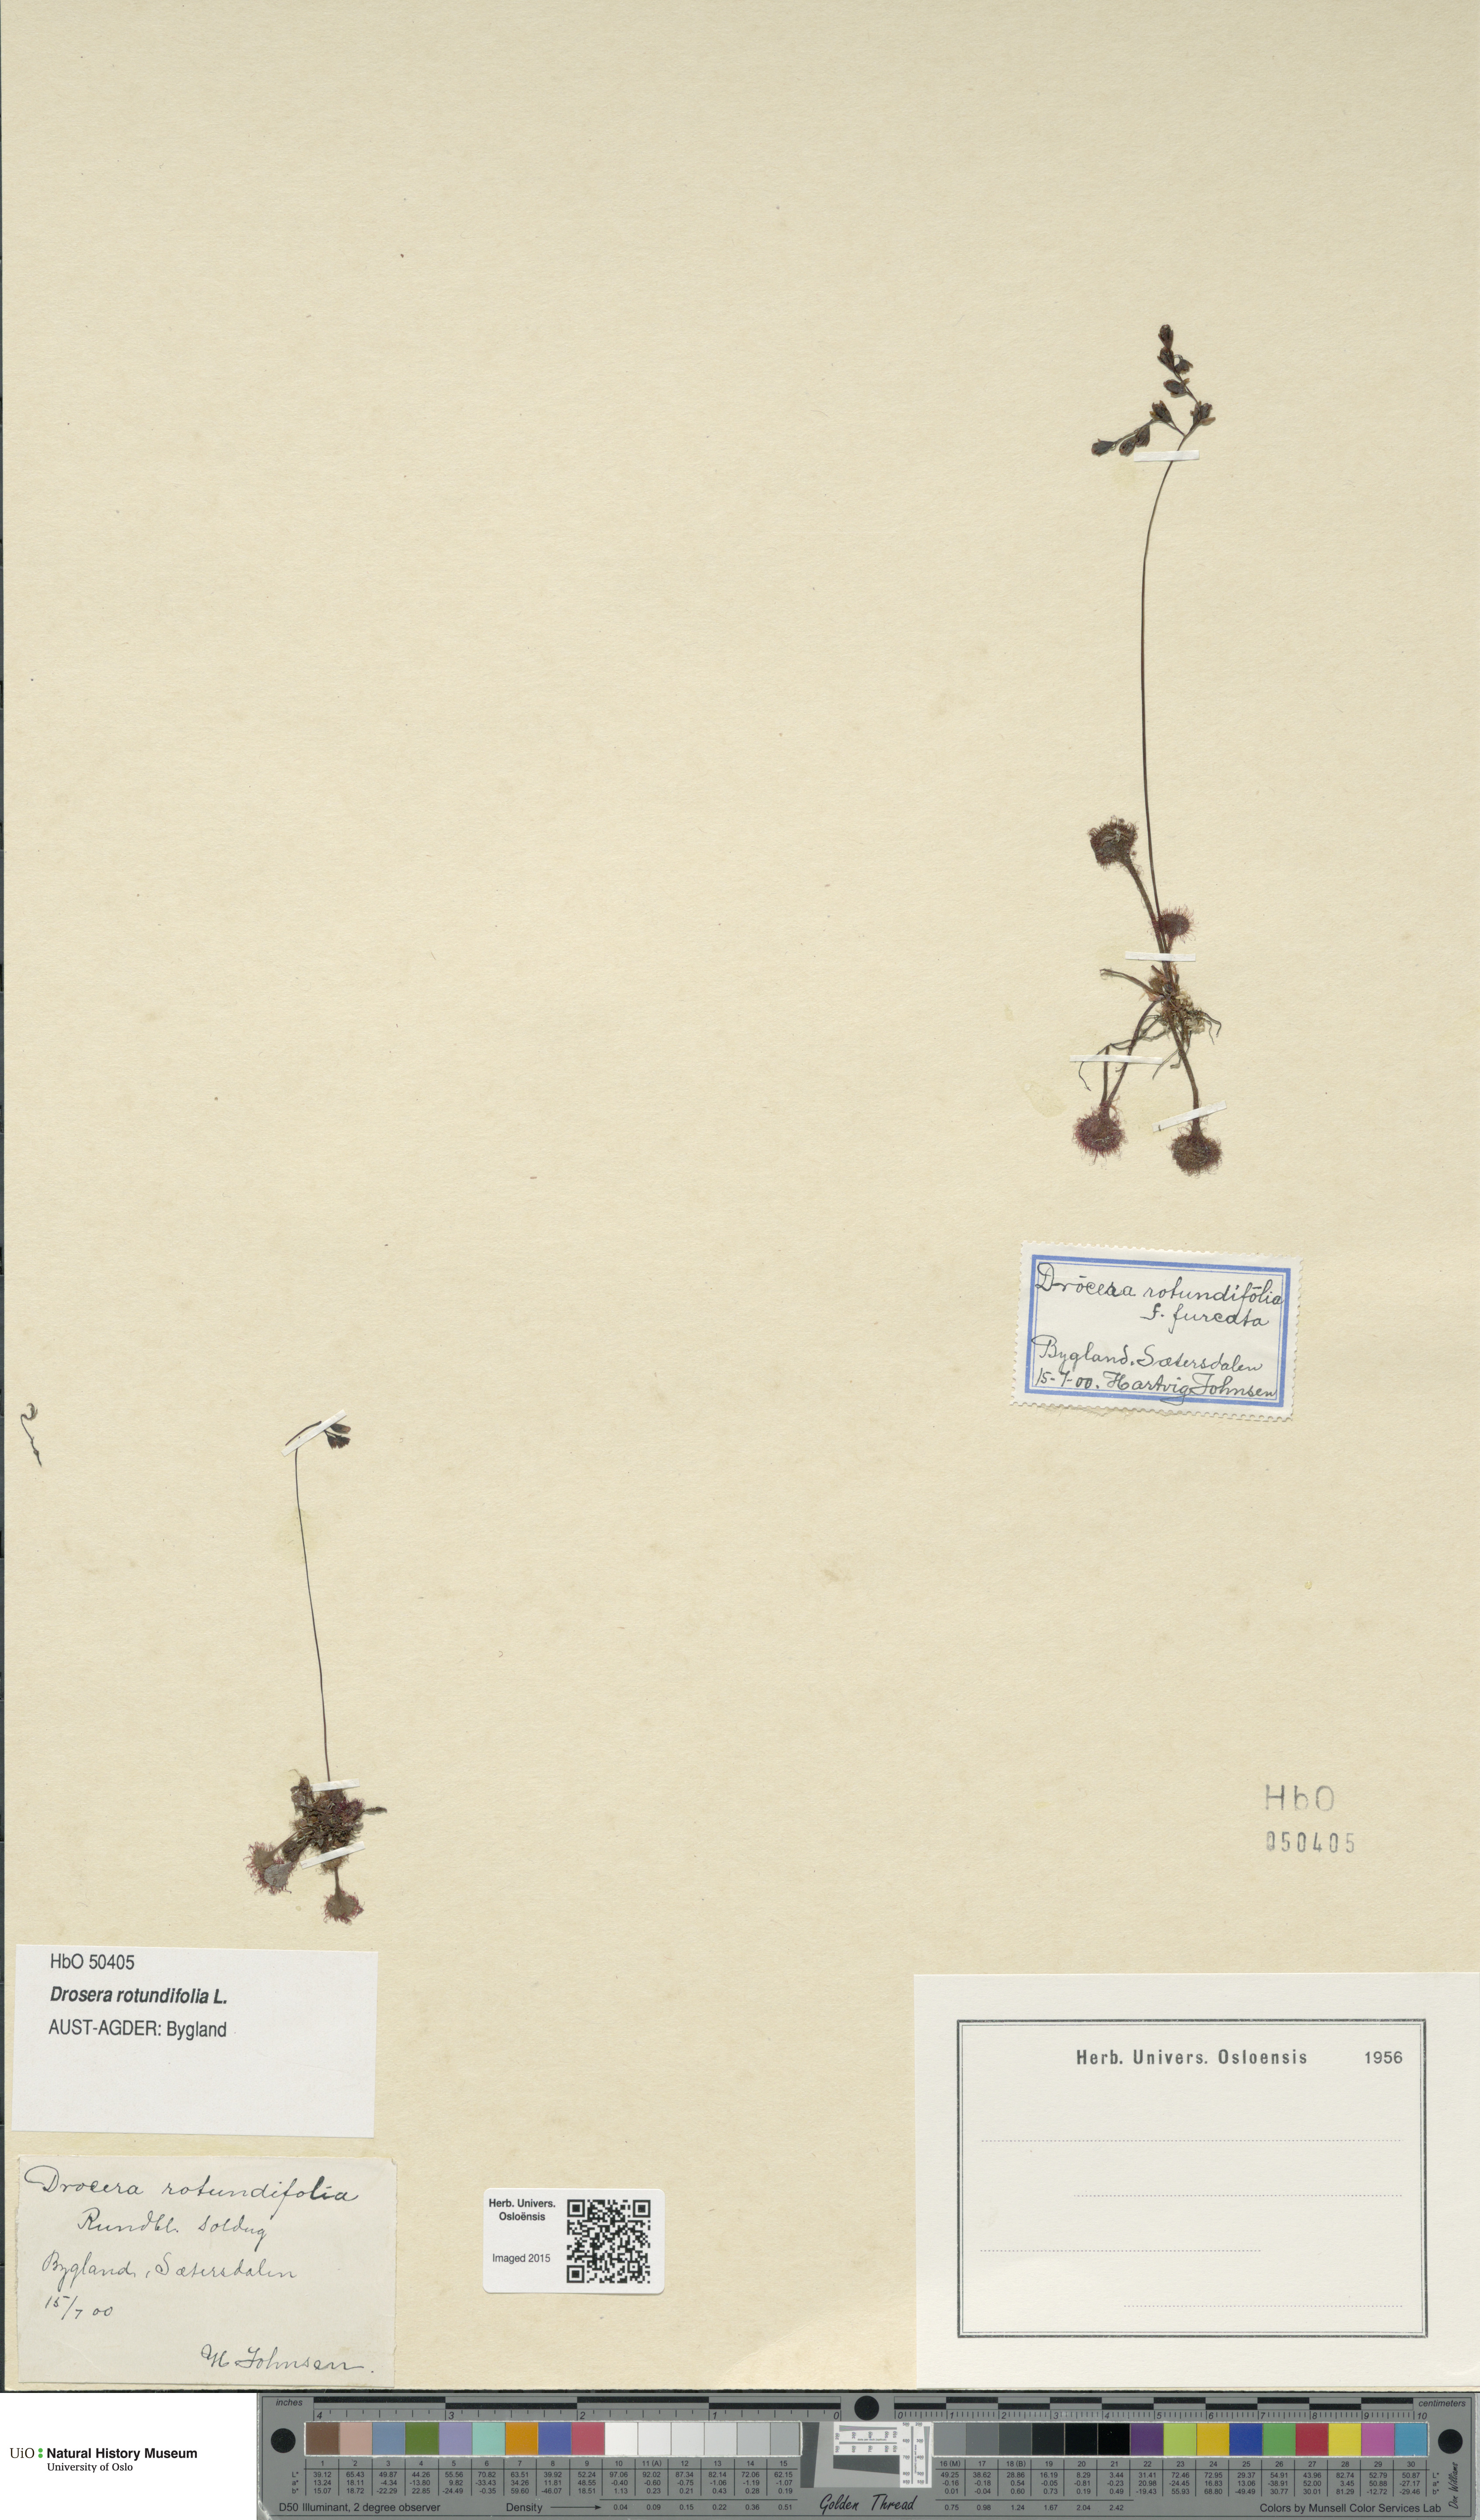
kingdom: Plantae
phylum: Tracheophyta
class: Magnoliopsida
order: Caryophyllales
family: Droseraceae
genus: Drosera
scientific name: Drosera rotundifolia
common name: Round-leaved sundew
